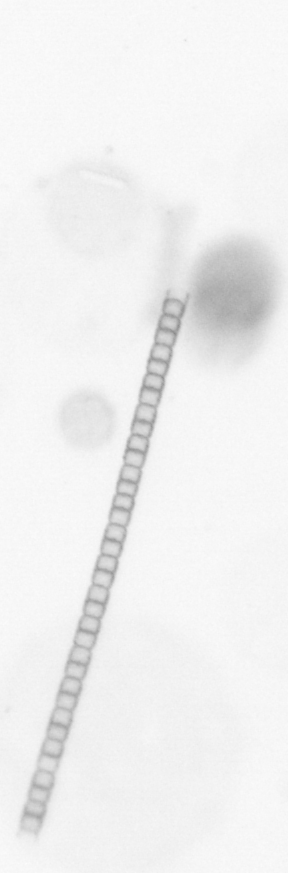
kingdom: Chromista
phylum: Ochrophyta
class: Bacillariophyceae
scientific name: Bacillariophyceae
